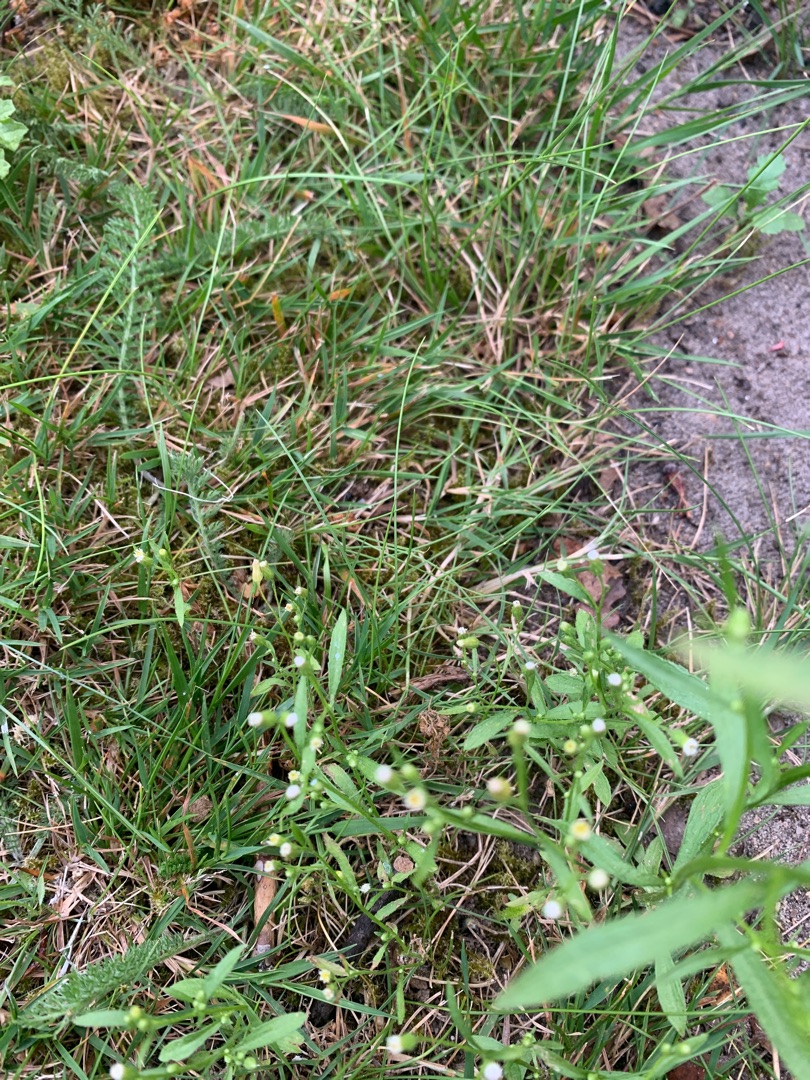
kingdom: Plantae
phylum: Tracheophyta
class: Magnoliopsida
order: Asterales
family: Asteraceae
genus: Erigeron
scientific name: Erigeron canadensis
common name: Kanadisk bakkestjerne
